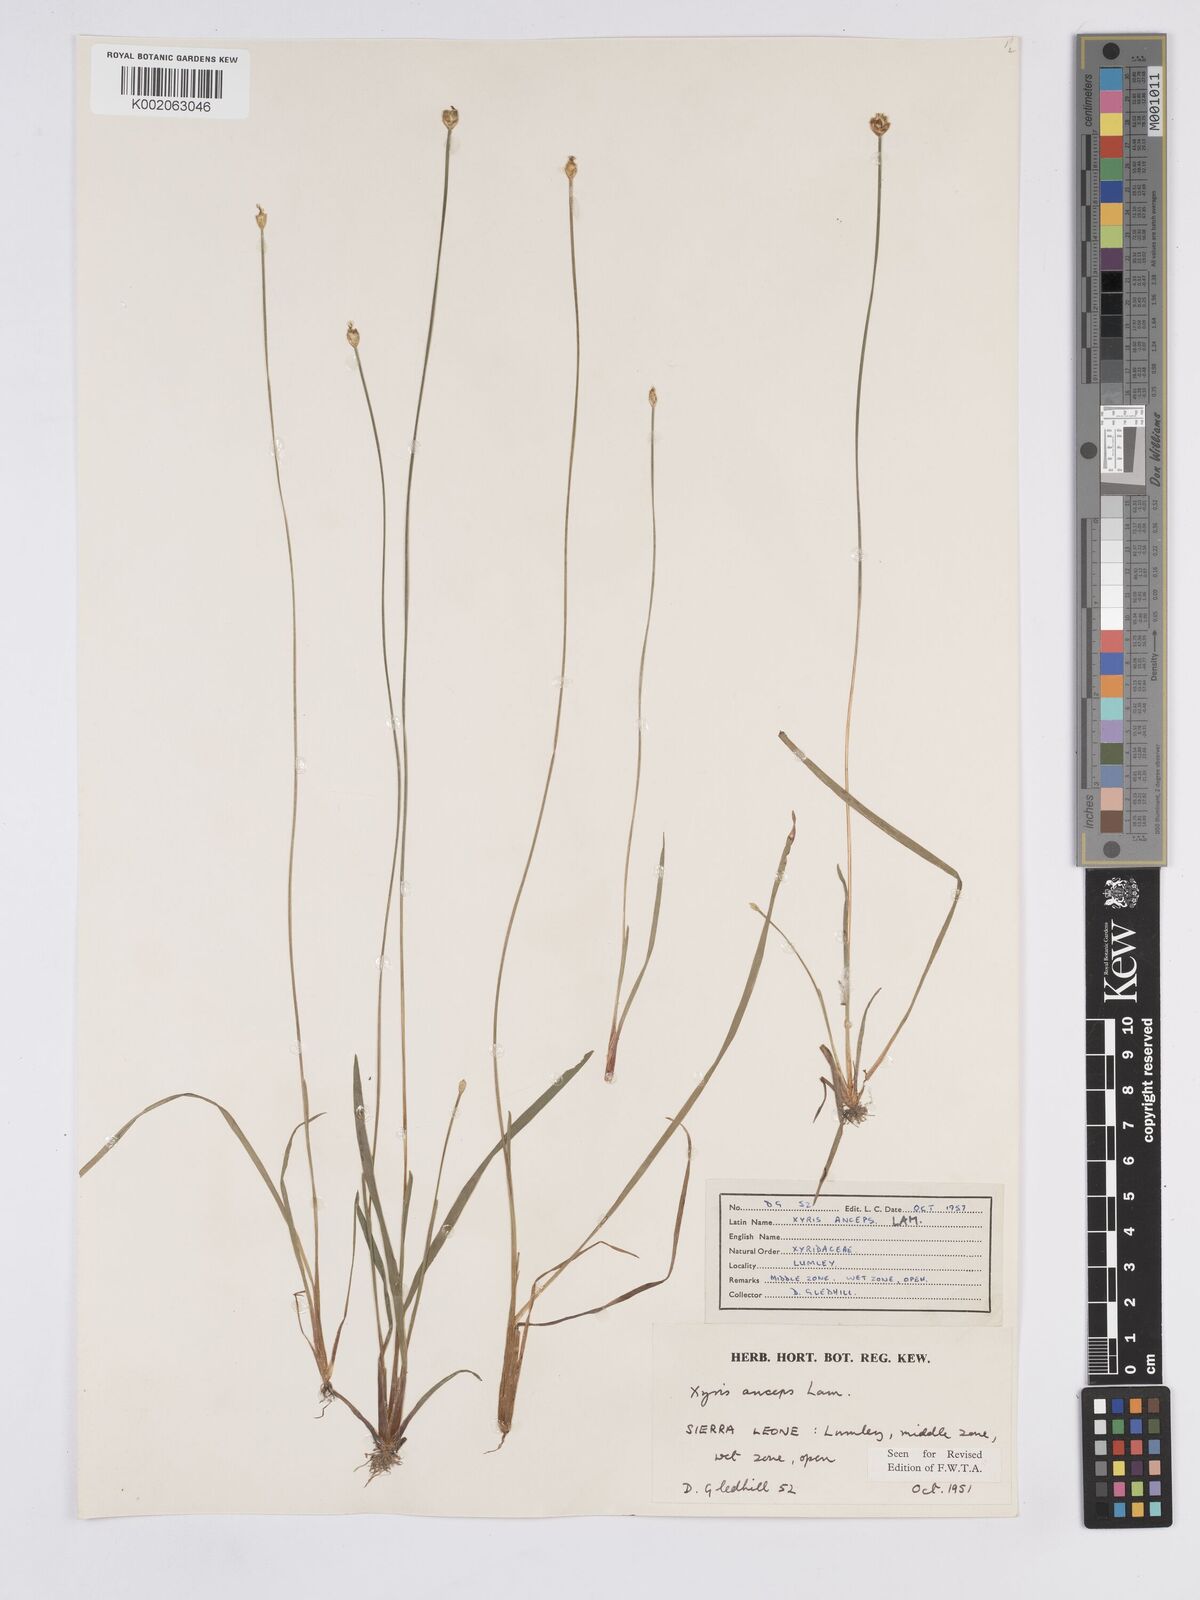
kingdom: Plantae
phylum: Tracheophyta
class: Liliopsida
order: Poales
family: Xyridaceae
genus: Xyris
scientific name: Xyris anceps
